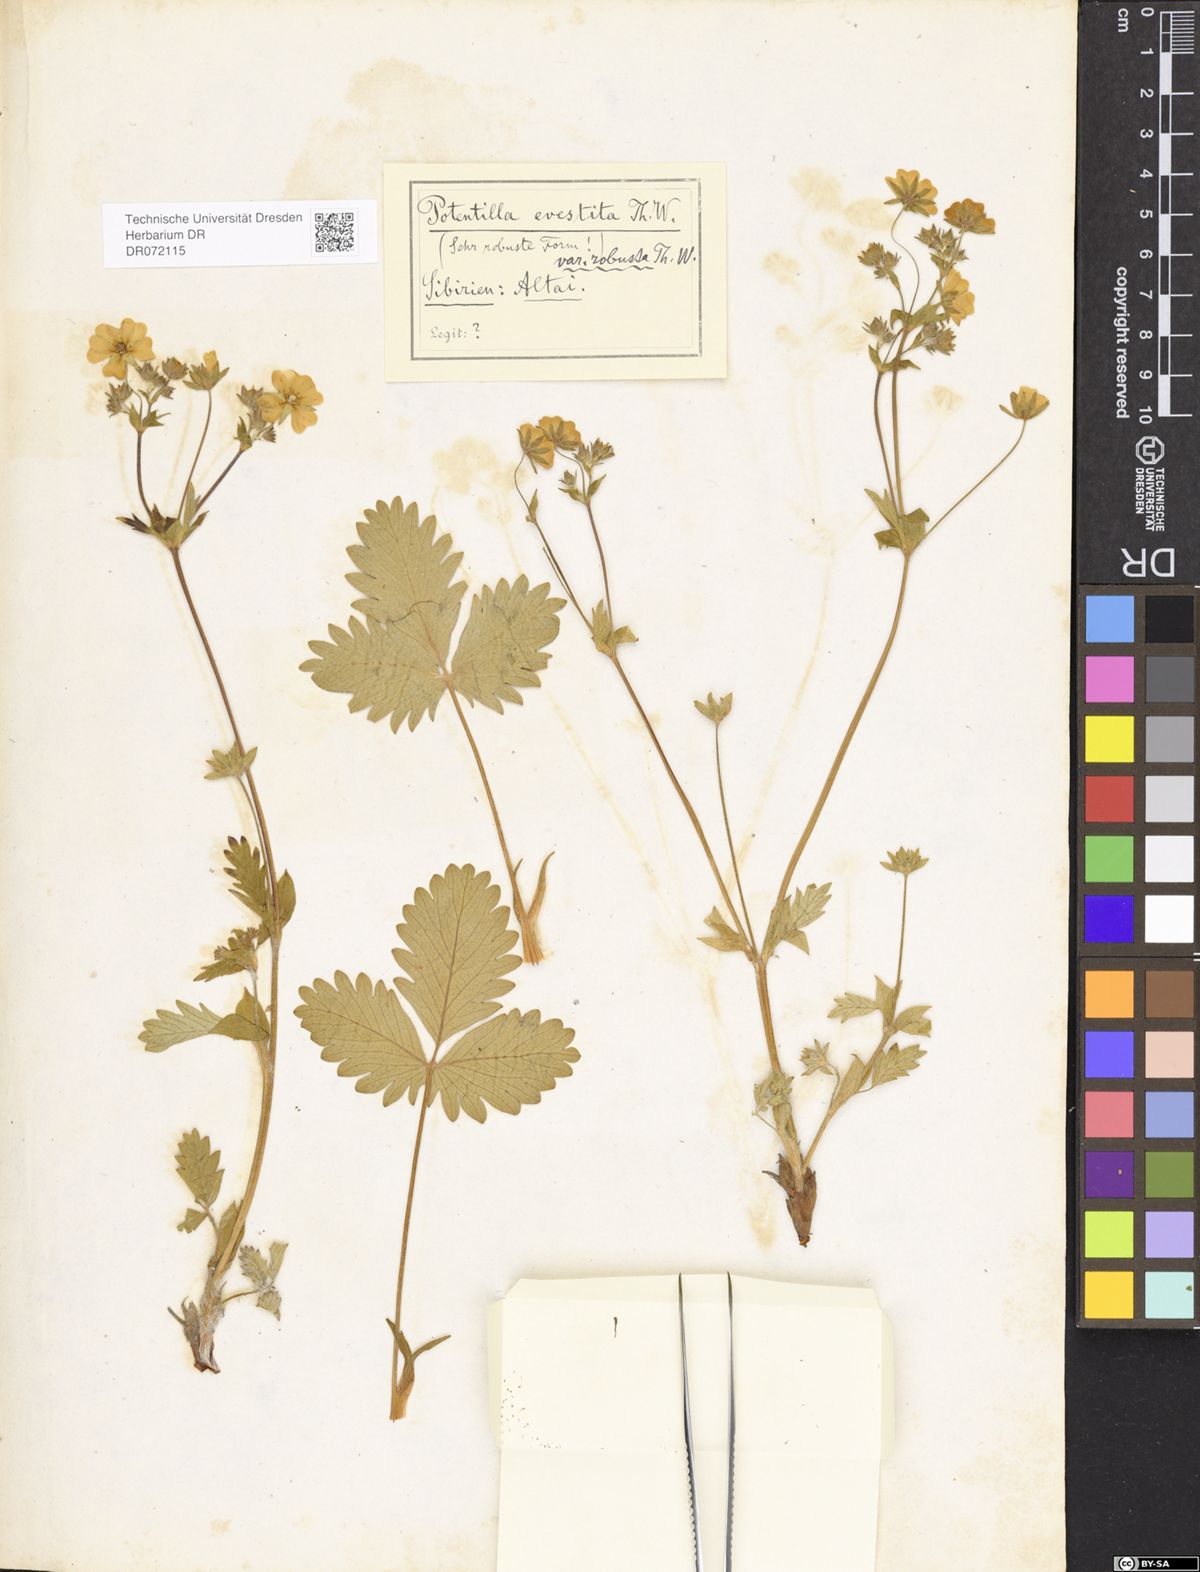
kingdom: Plantae
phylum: Tracheophyta
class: Magnoliopsida
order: Rosales
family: Rosaceae
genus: Potentilla
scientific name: Potentilla evestita
